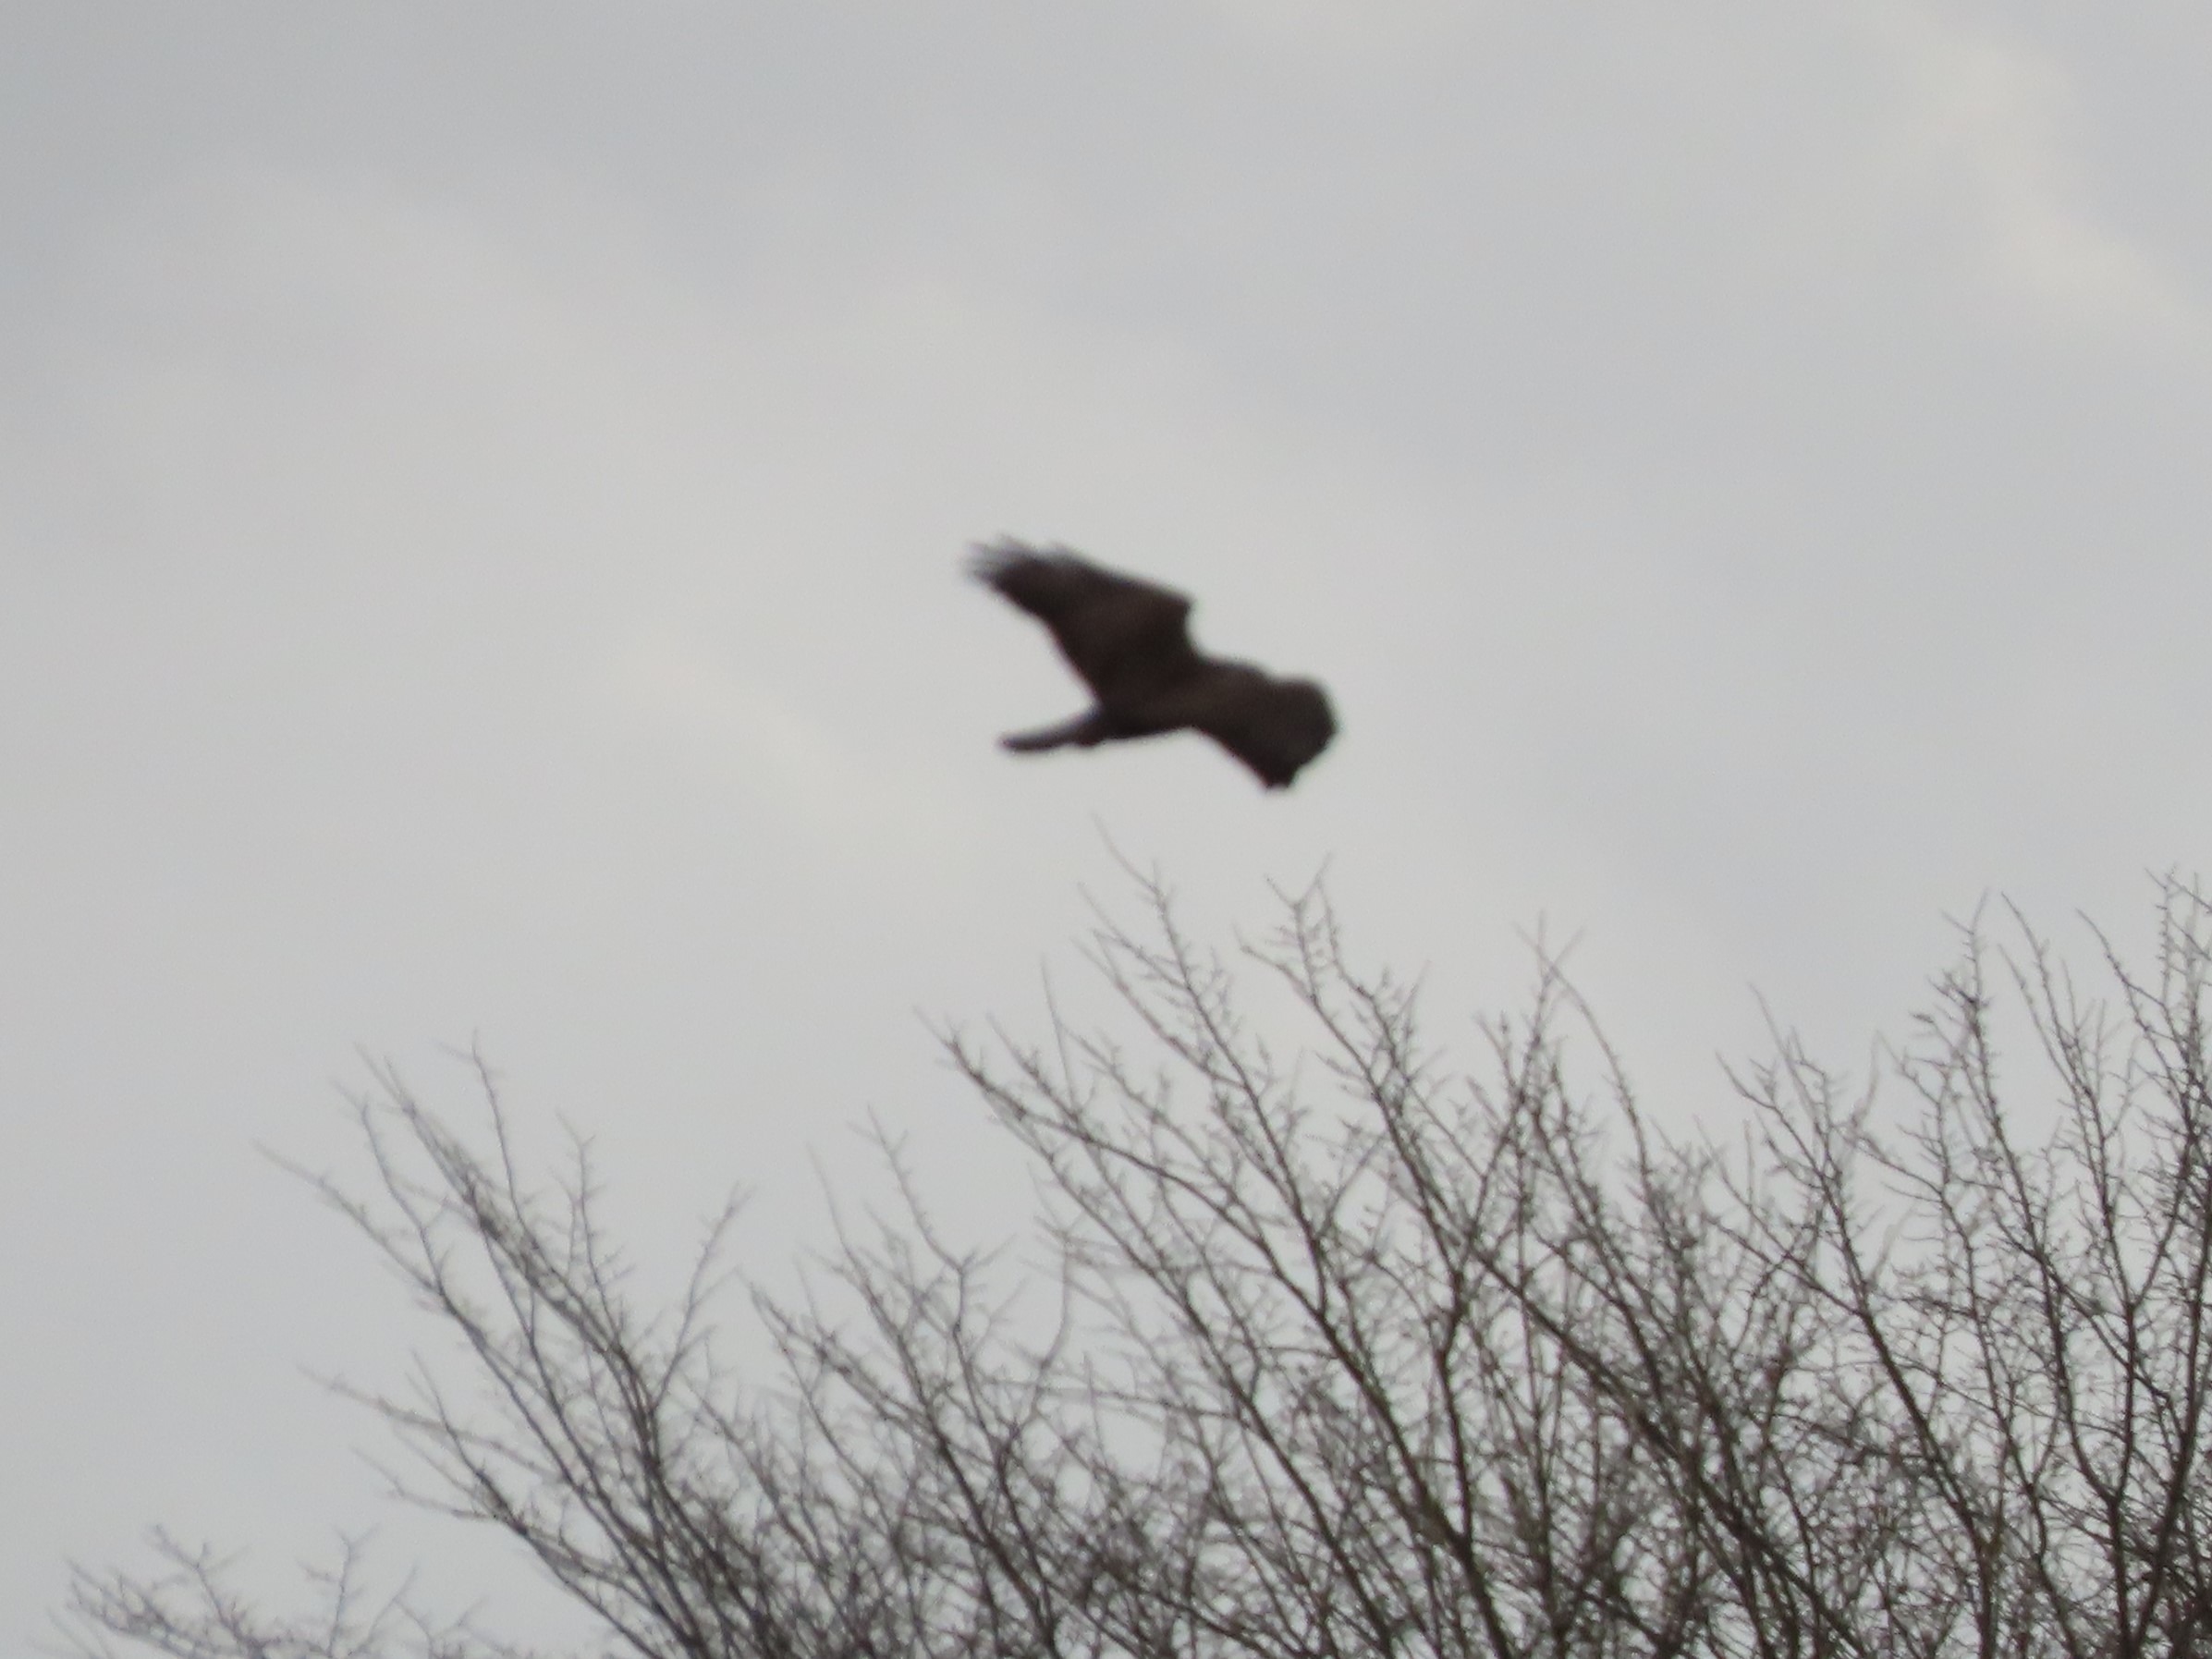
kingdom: Animalia
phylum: Chordata
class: Aves
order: Accipitriformes
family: Accipitridae
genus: Buteo
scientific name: Buteo buteo
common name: Musvåge
